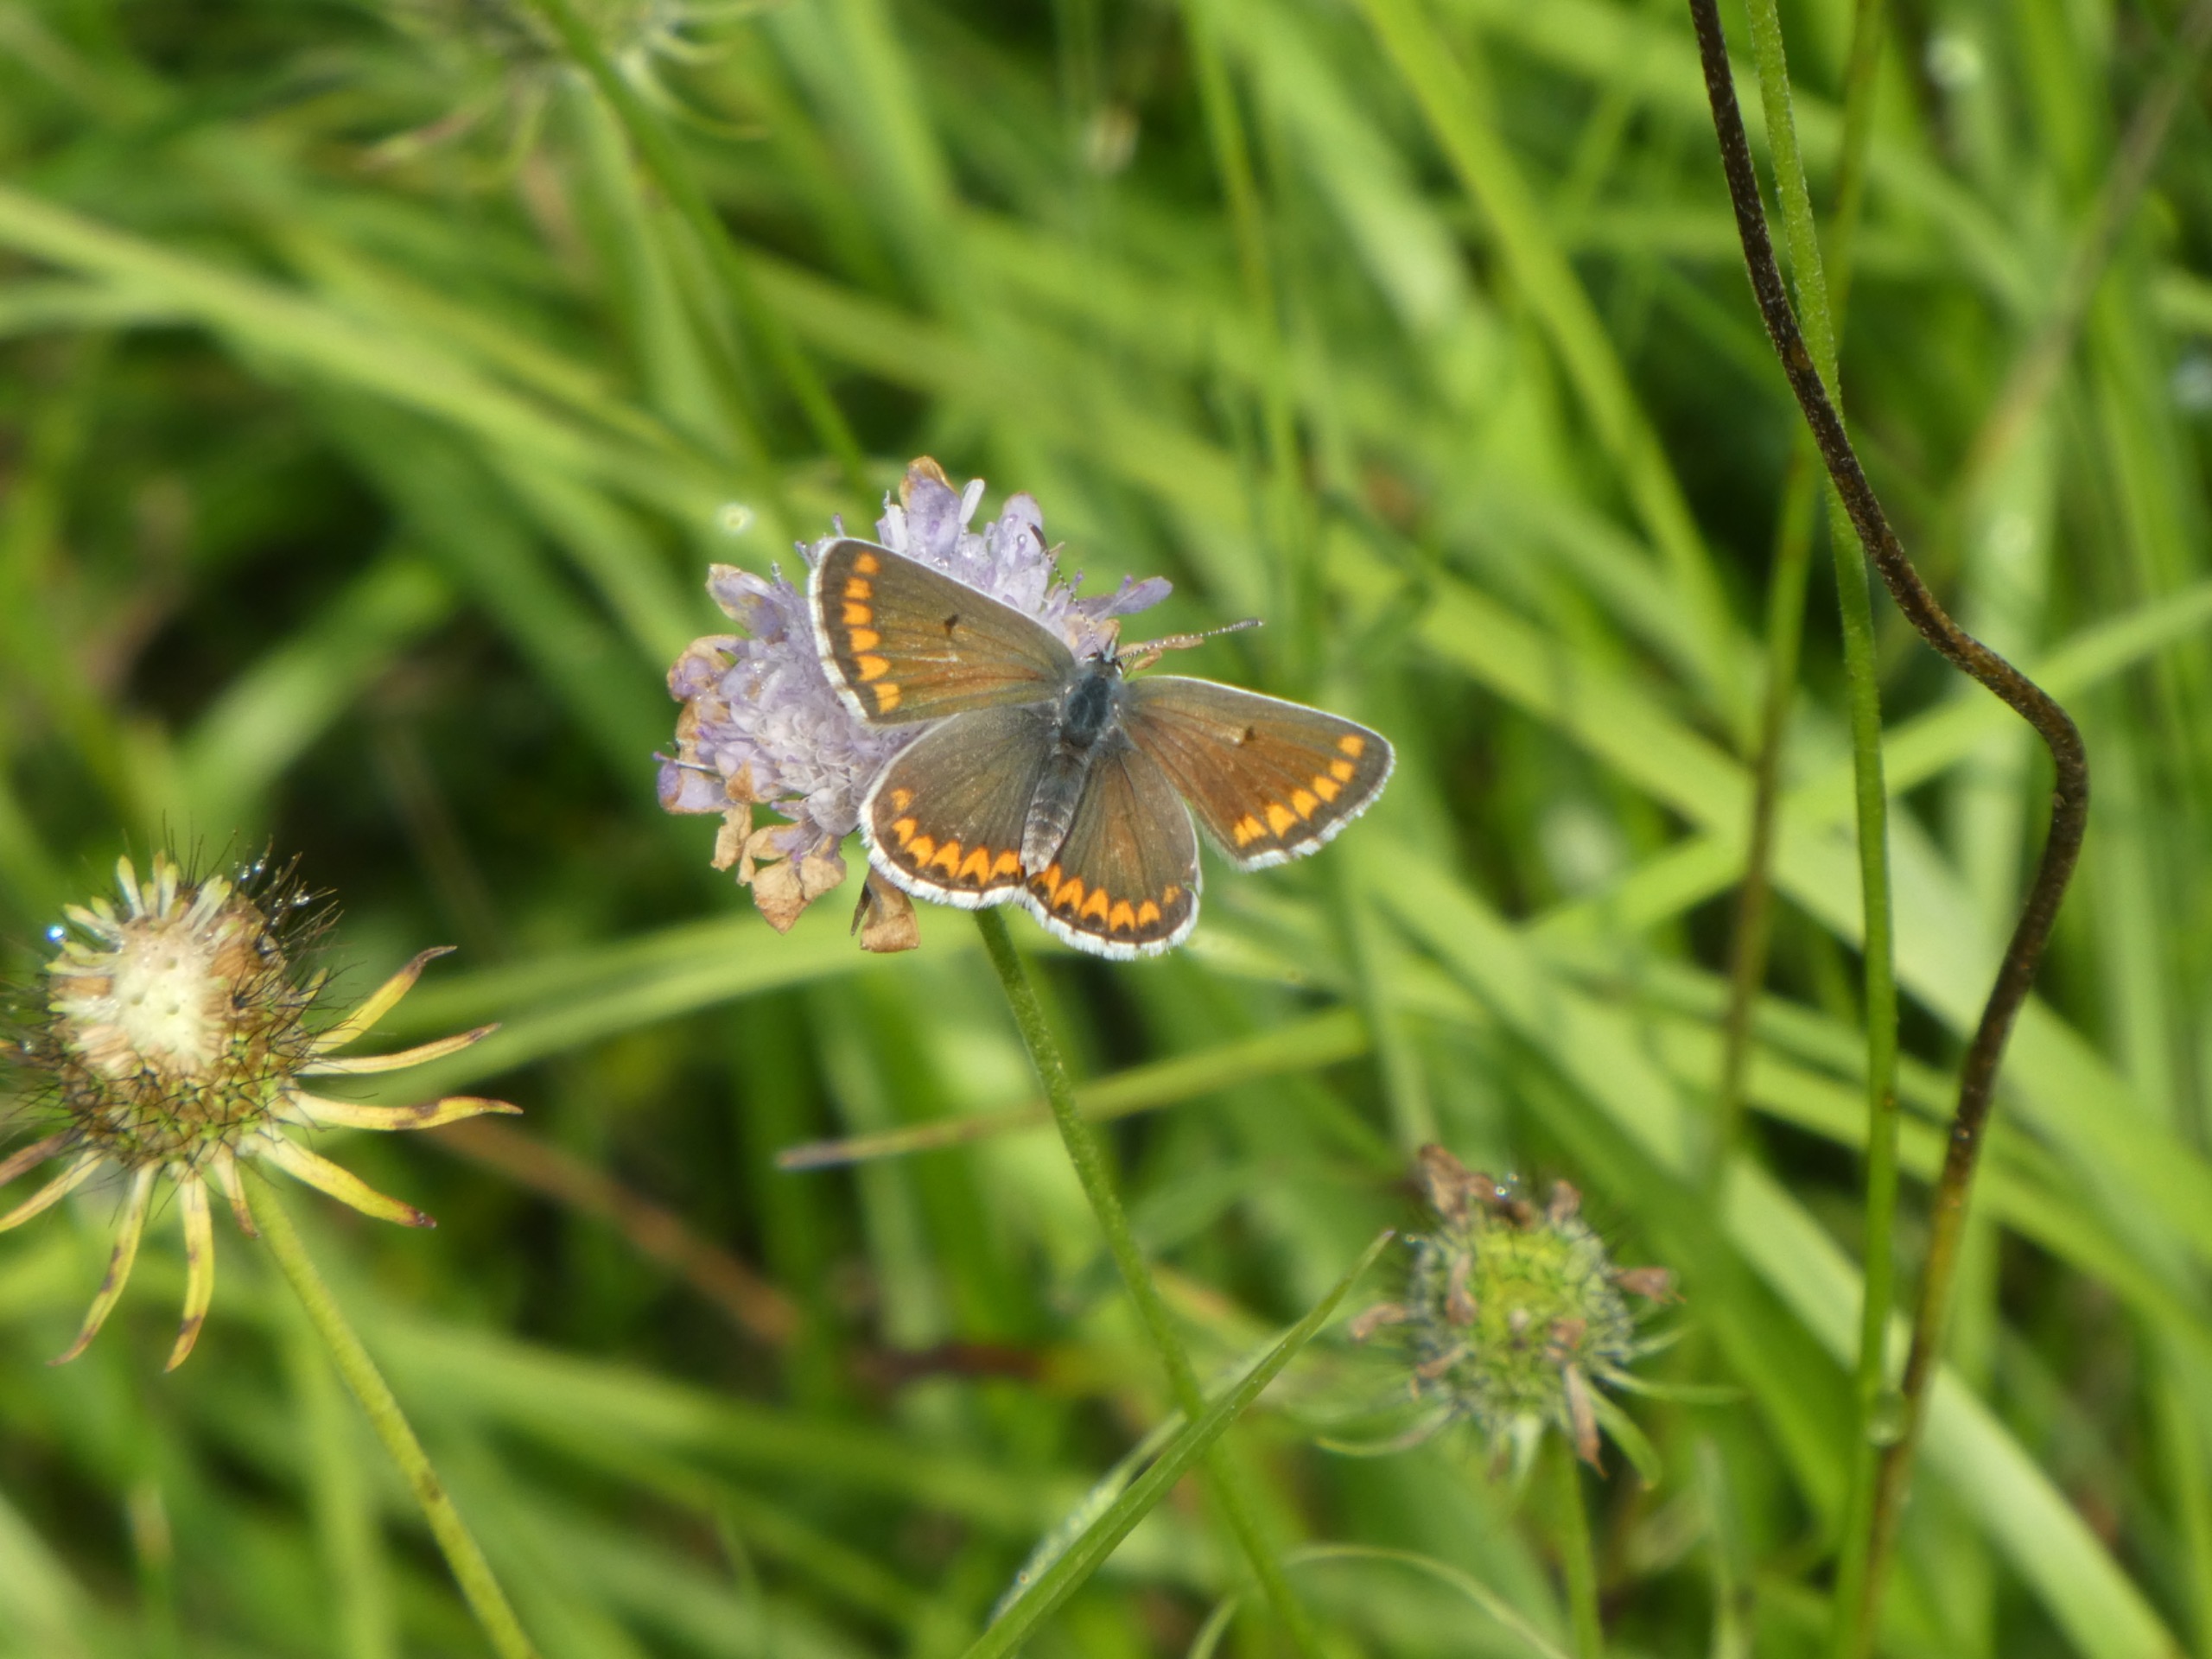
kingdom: Animalia
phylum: Arthropoda
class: Insecta
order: Lepidoptera
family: Lycaenidae
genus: Aricia
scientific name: Aricia agestis
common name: Rødplettet blåfugl
